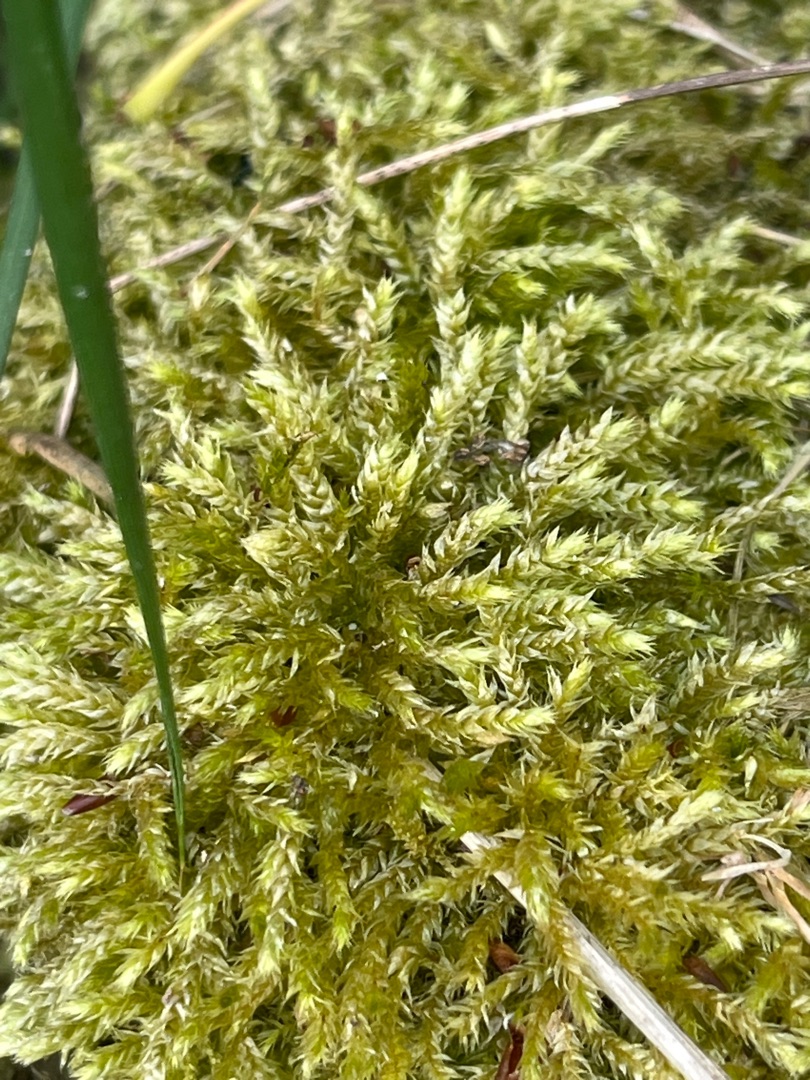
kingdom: Plantae
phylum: Bryophyta
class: Bryopsida
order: Hypnales
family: Brachytheciaceae
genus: Brachythecium
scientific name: Brachythecium rutabulum
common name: Almindelig kortkapsel
